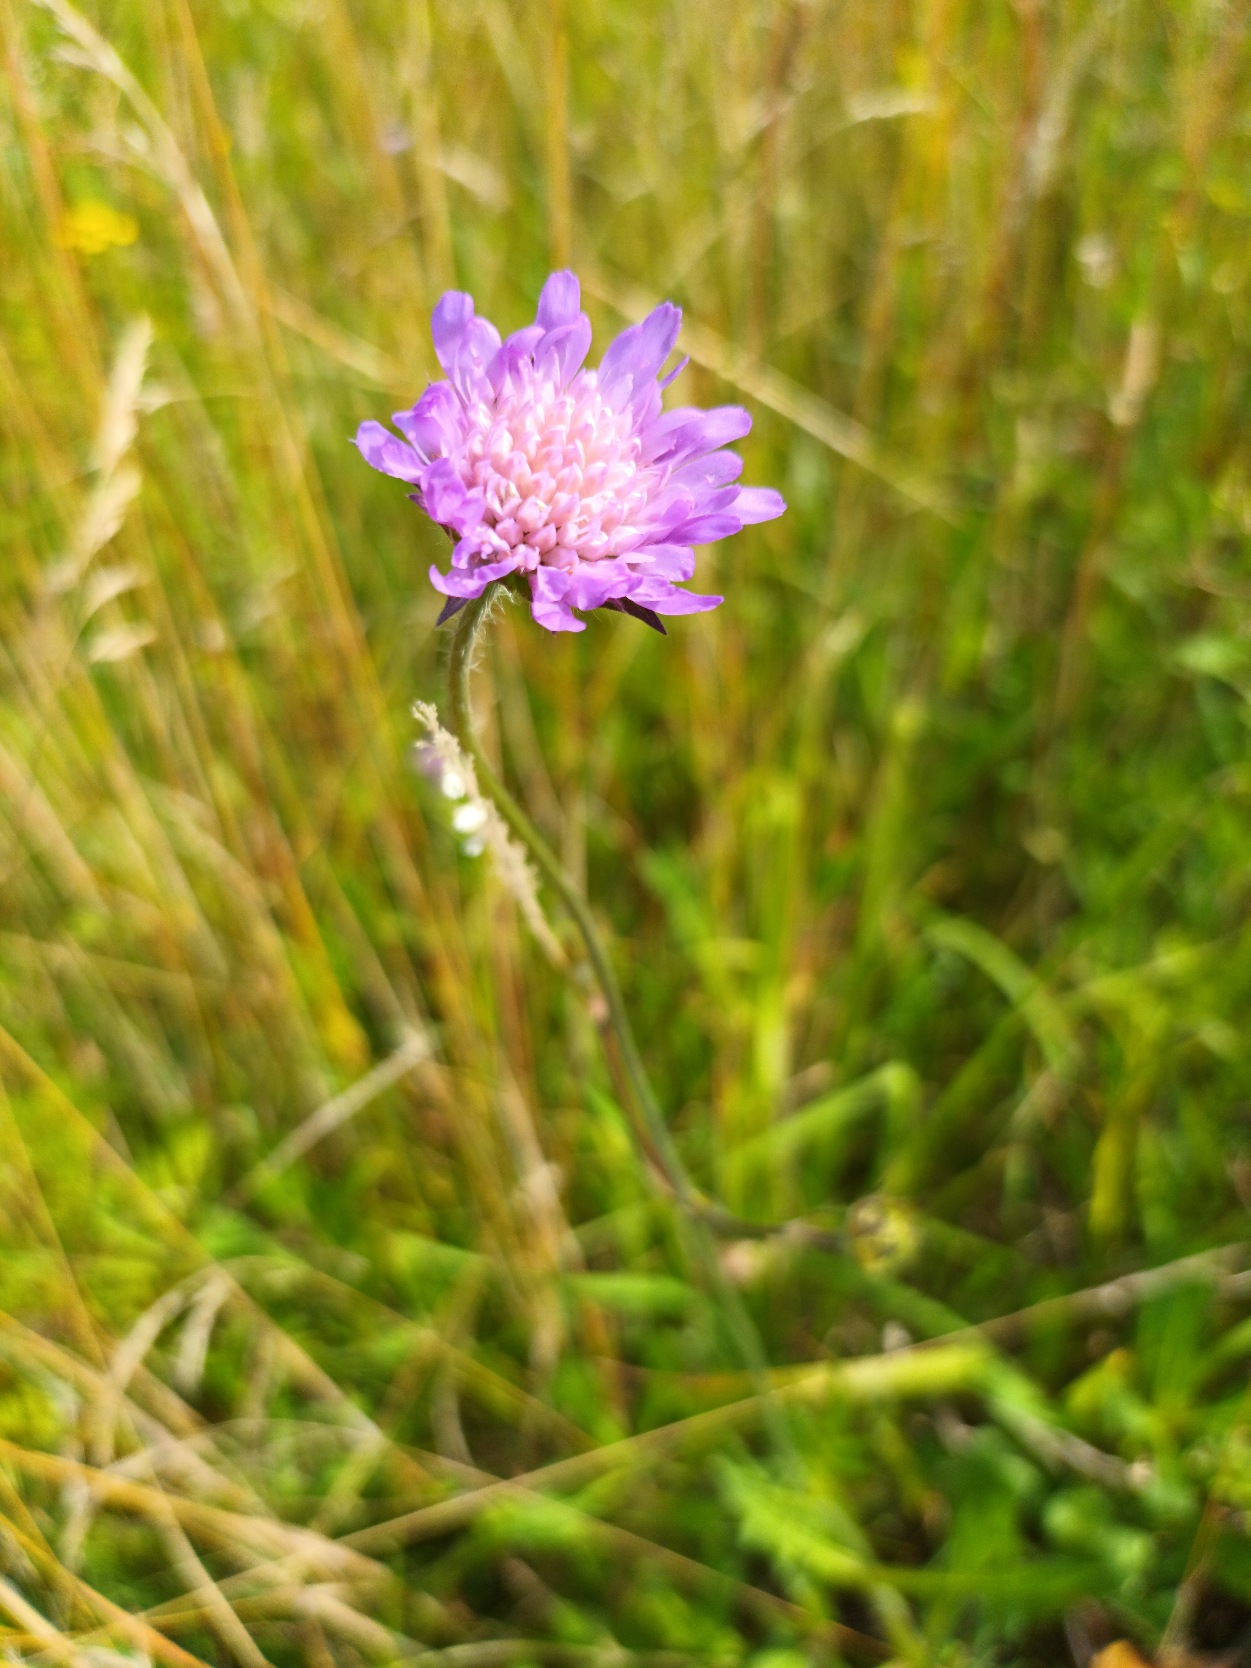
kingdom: Plantae
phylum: Tracheophyta
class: Magnoliopsida
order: Dipsacales
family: Caprifoliaceae
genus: Knautia
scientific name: Knautia arvensis
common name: Blåhat
